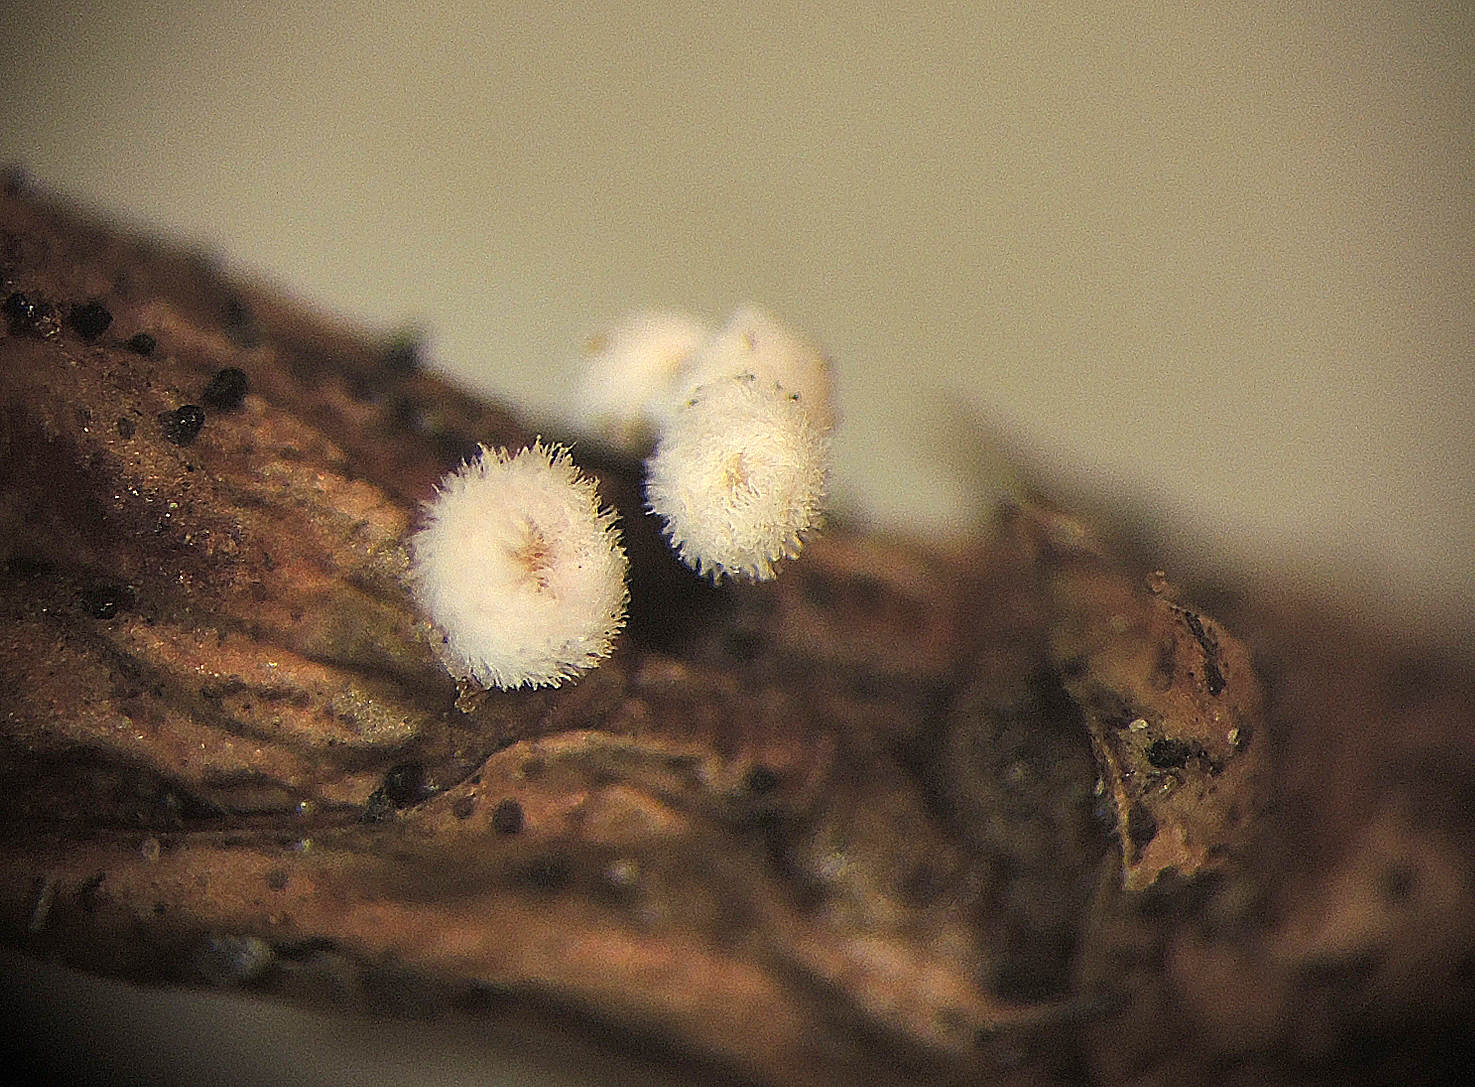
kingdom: Fungi
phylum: Basidiomycota
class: Agaricomycetes
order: Agaricales
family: Niaceae
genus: Lachnella
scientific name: Lachnella villosa
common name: hvid frynserede
